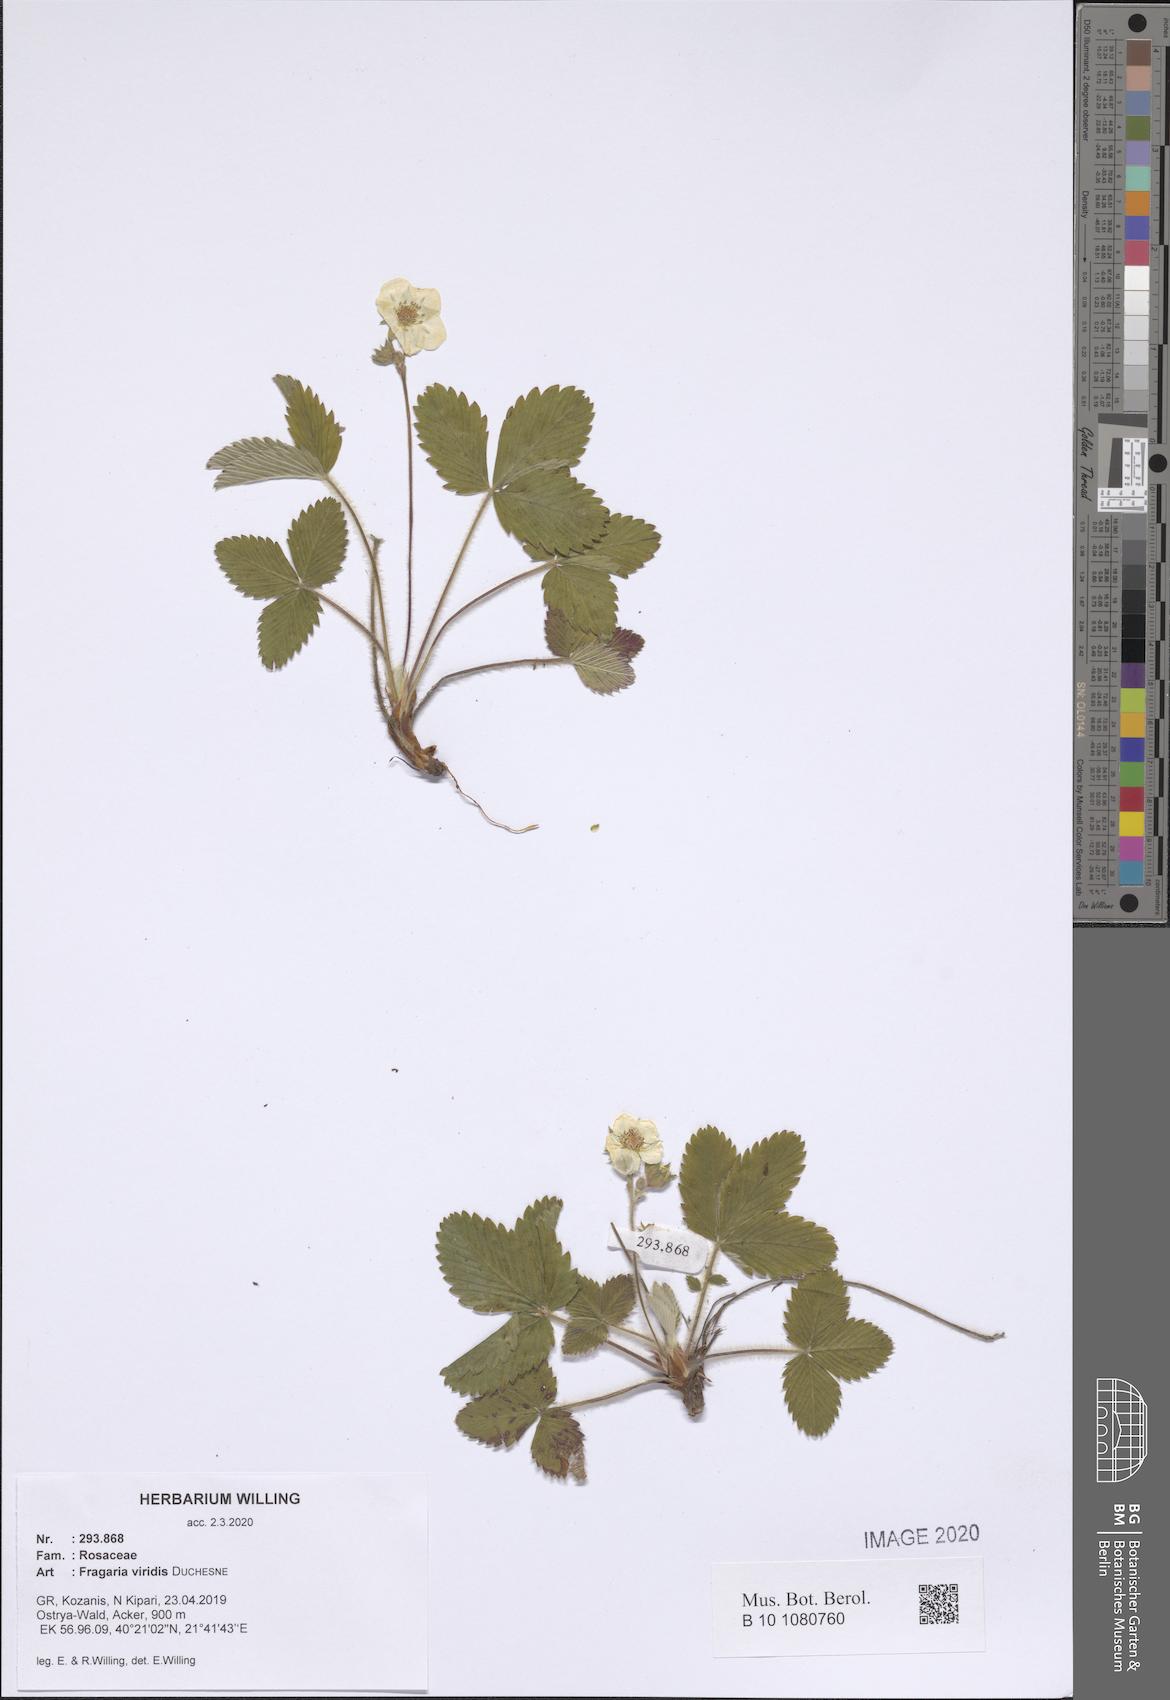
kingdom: Plantae
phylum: Tracheophyta
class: Magnoliopsida
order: Rosales
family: Rosaceae
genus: Fragaria
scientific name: Fragaria viridis
